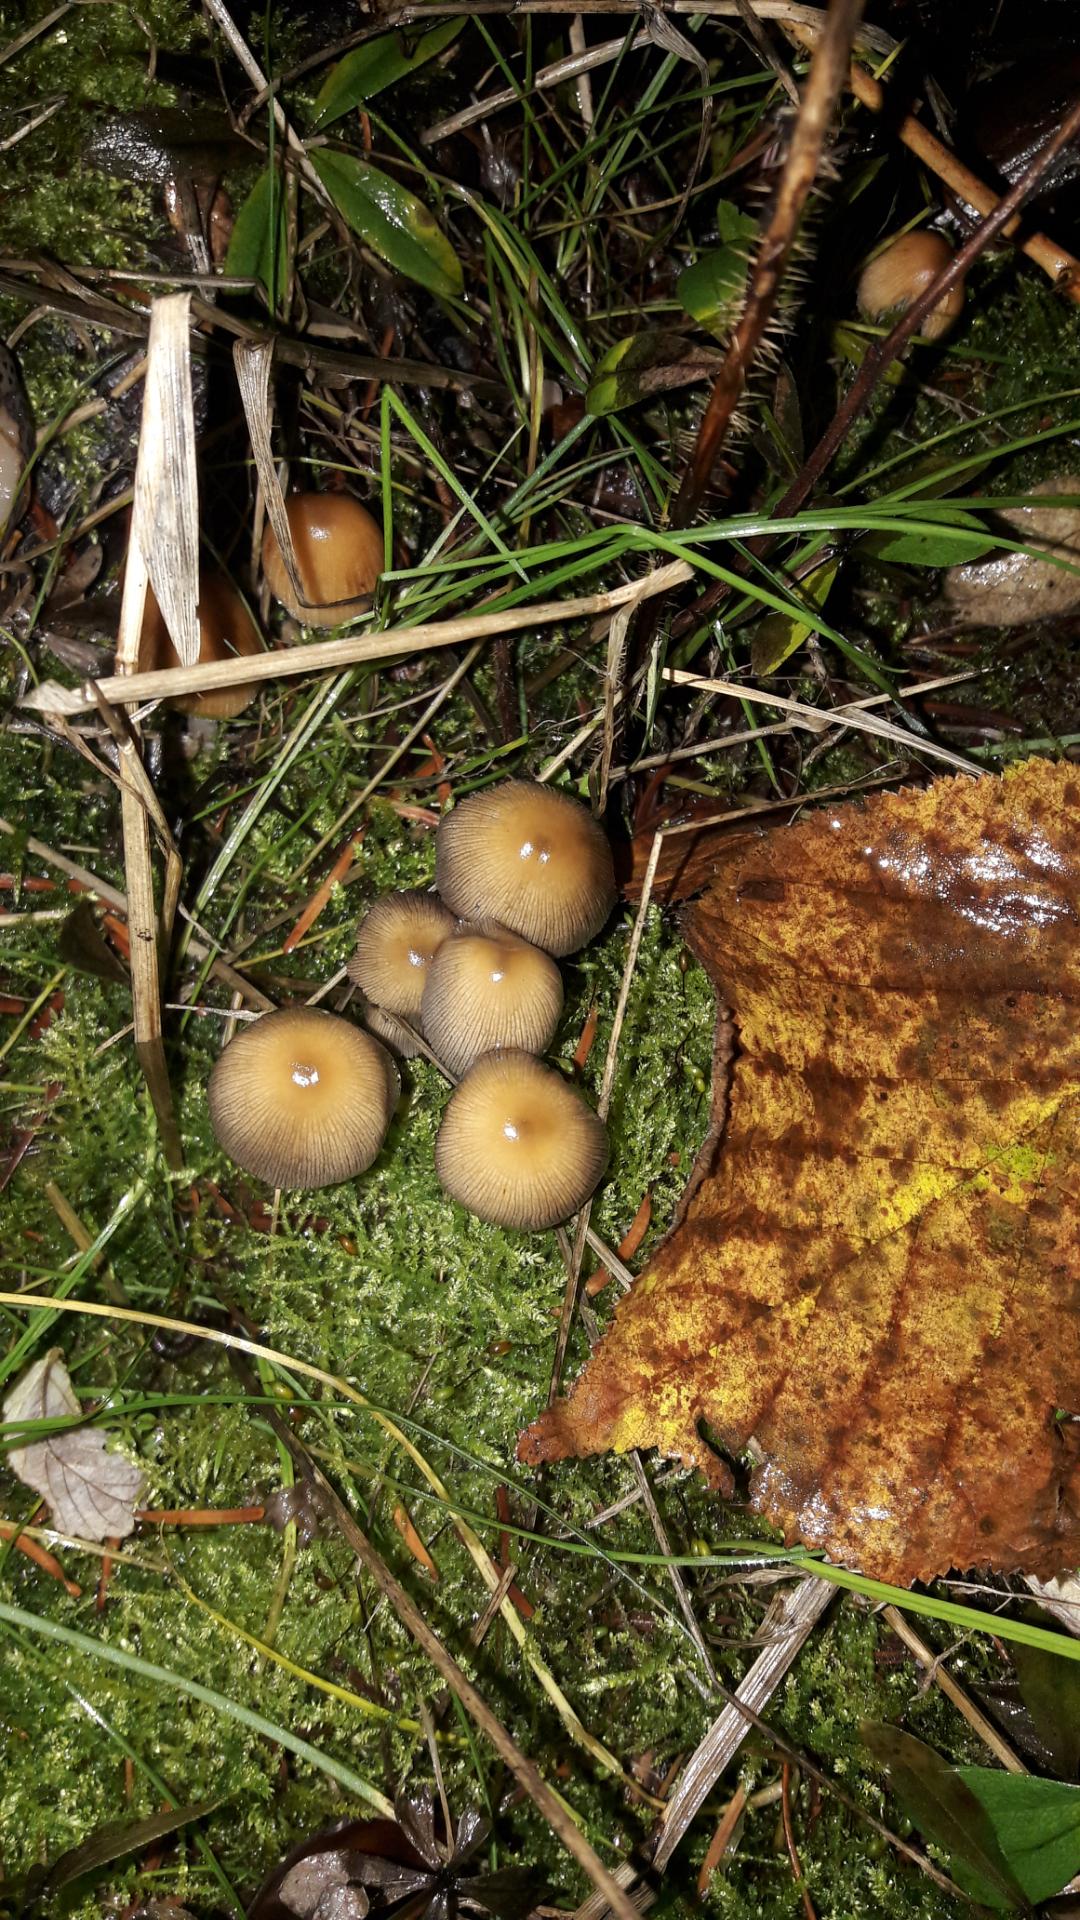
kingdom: Fungi
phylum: Basidiomycota
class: Agaricomycetes
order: Agaricales
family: Psathyrellaceae
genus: Coprinellus
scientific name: Coprinellus micaceus
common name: glimmer-blækhat
